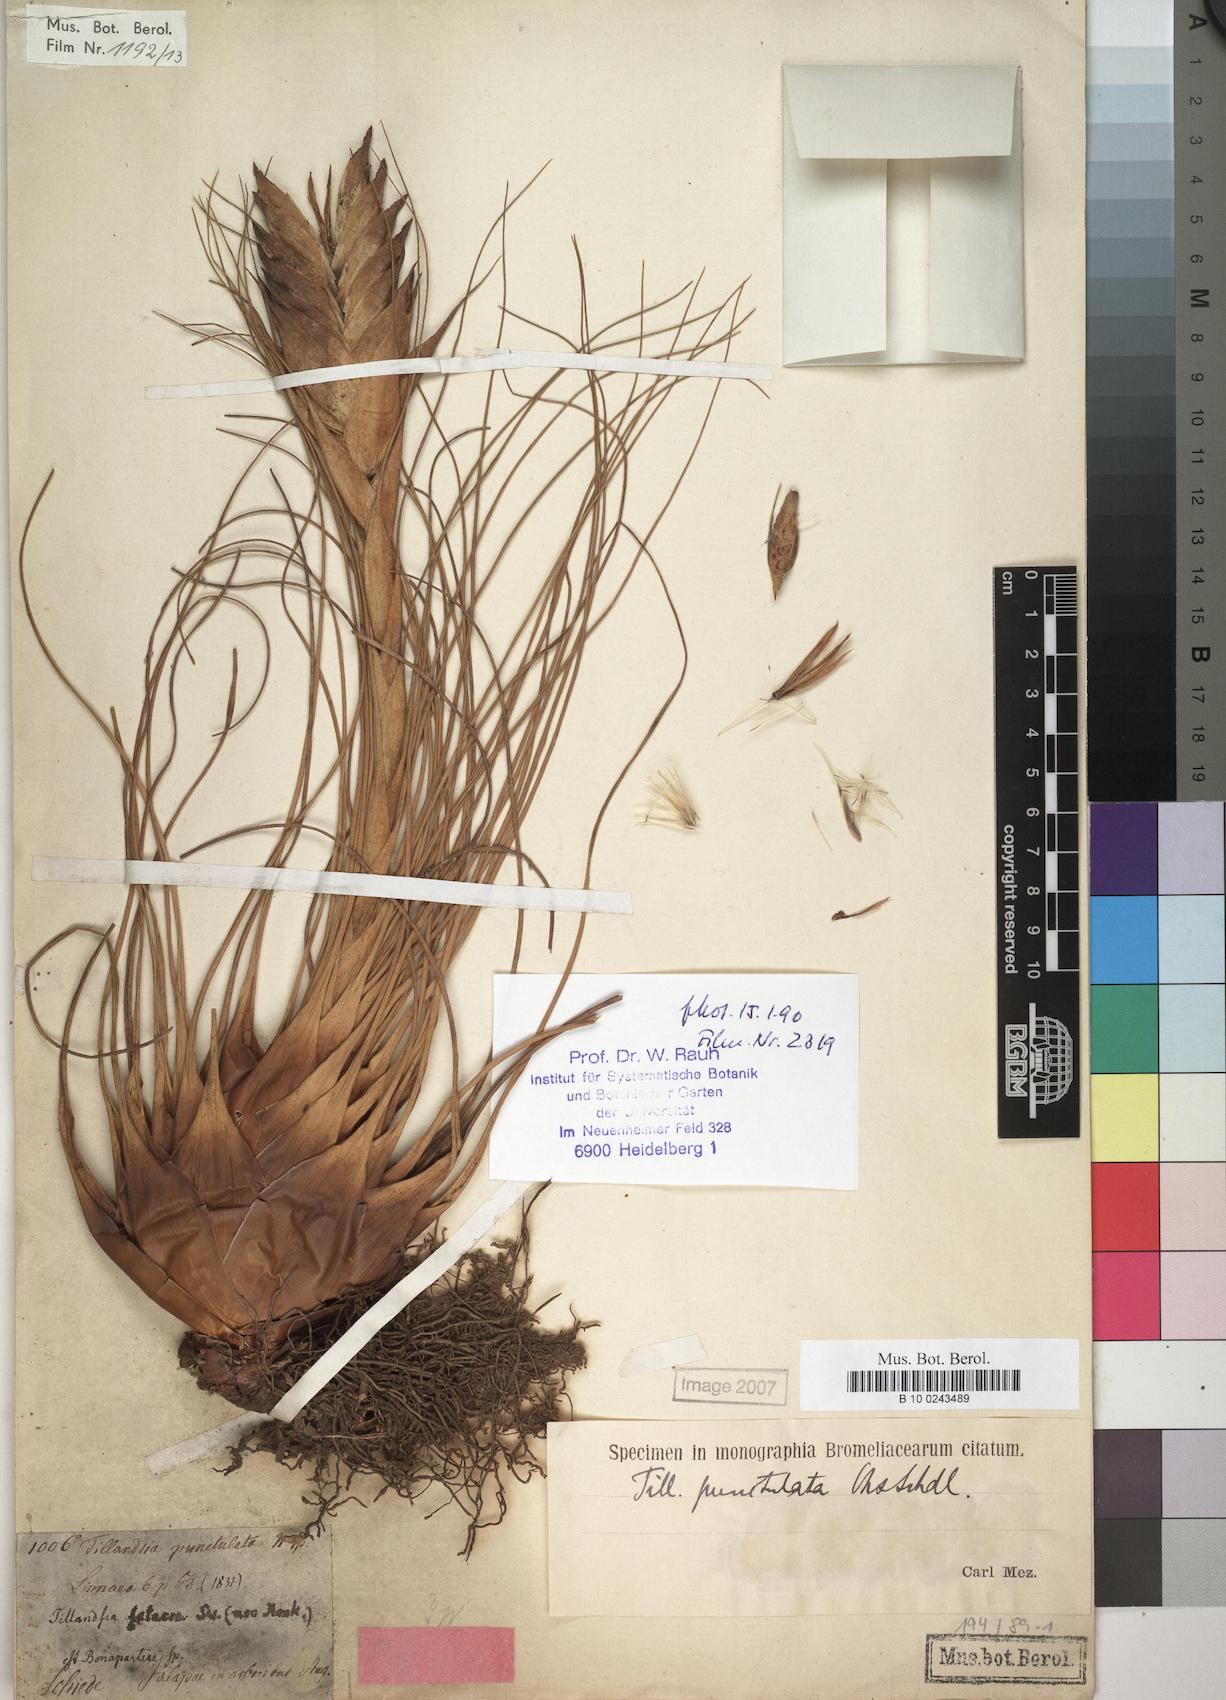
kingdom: Plantae
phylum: Tracheophyta
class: Liliopsida
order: Poales
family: Bromeliaceae
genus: Tillandsia
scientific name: Tillandsia punctulata
